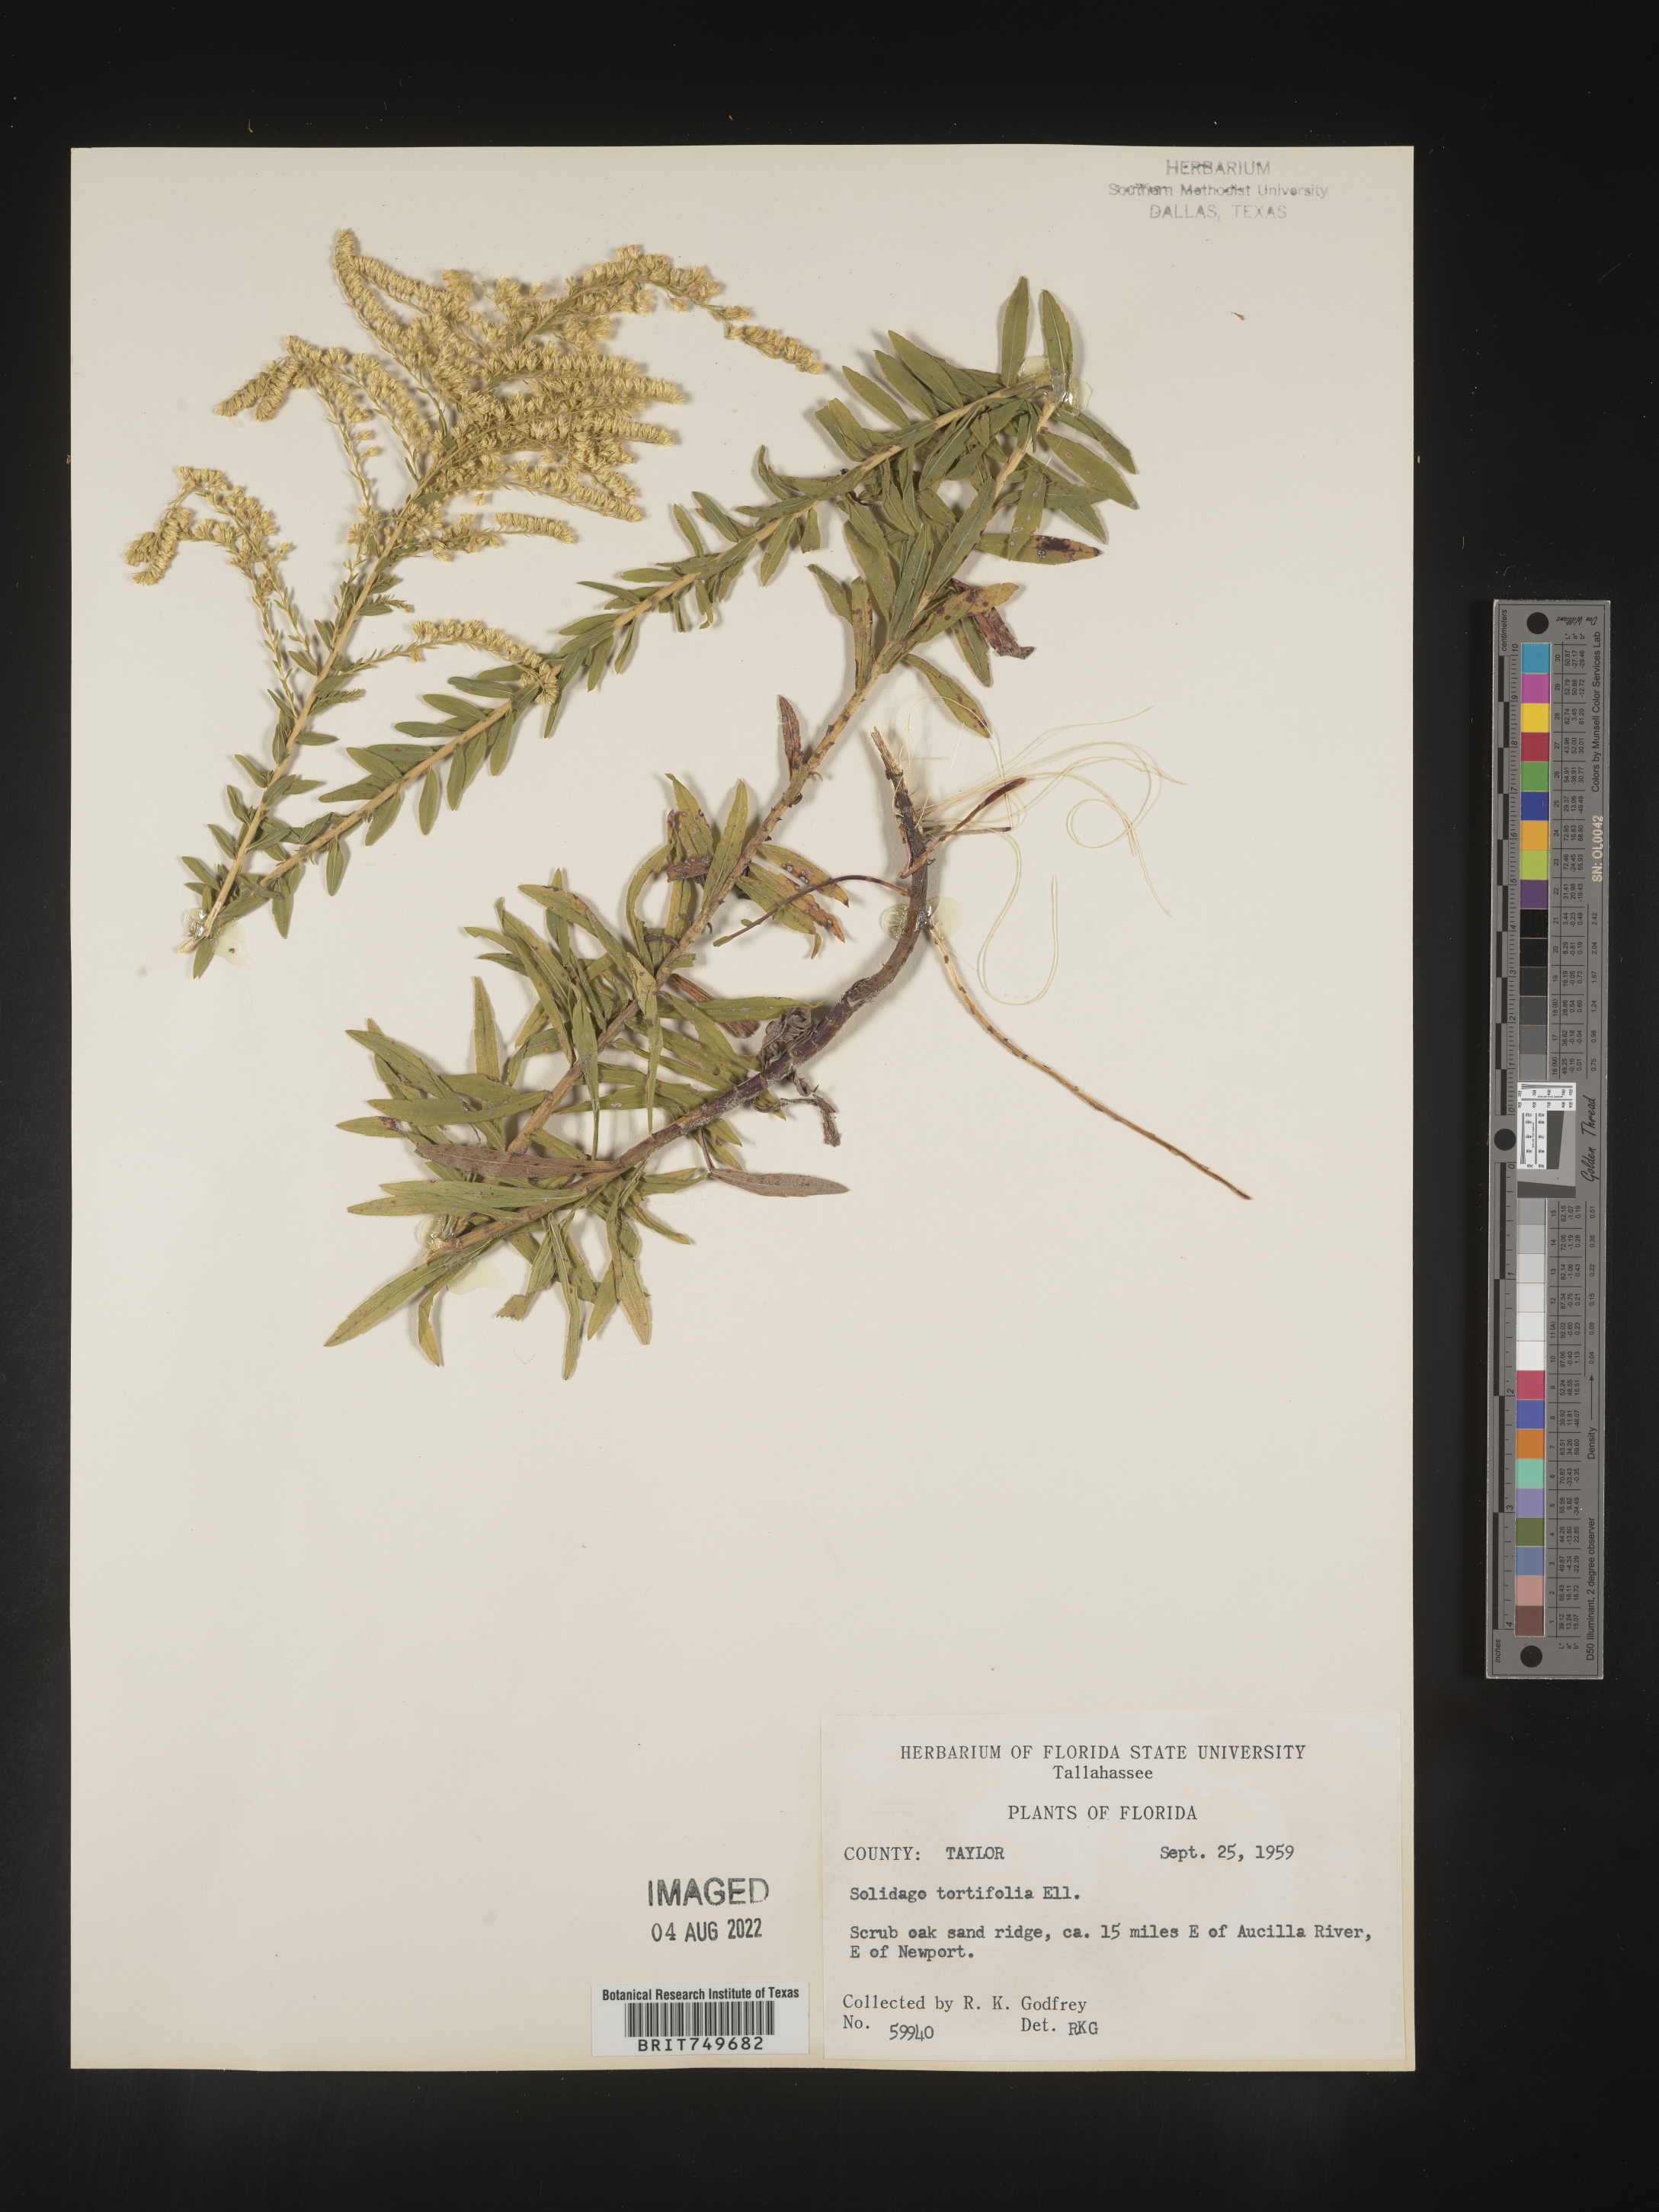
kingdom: Plantae
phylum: Tracheophyta
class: Magnoliopsida
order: Asterales
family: Asteraceae
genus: Solidago
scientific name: Solidago tortifolia
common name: Twisted-leaf goldenrod
